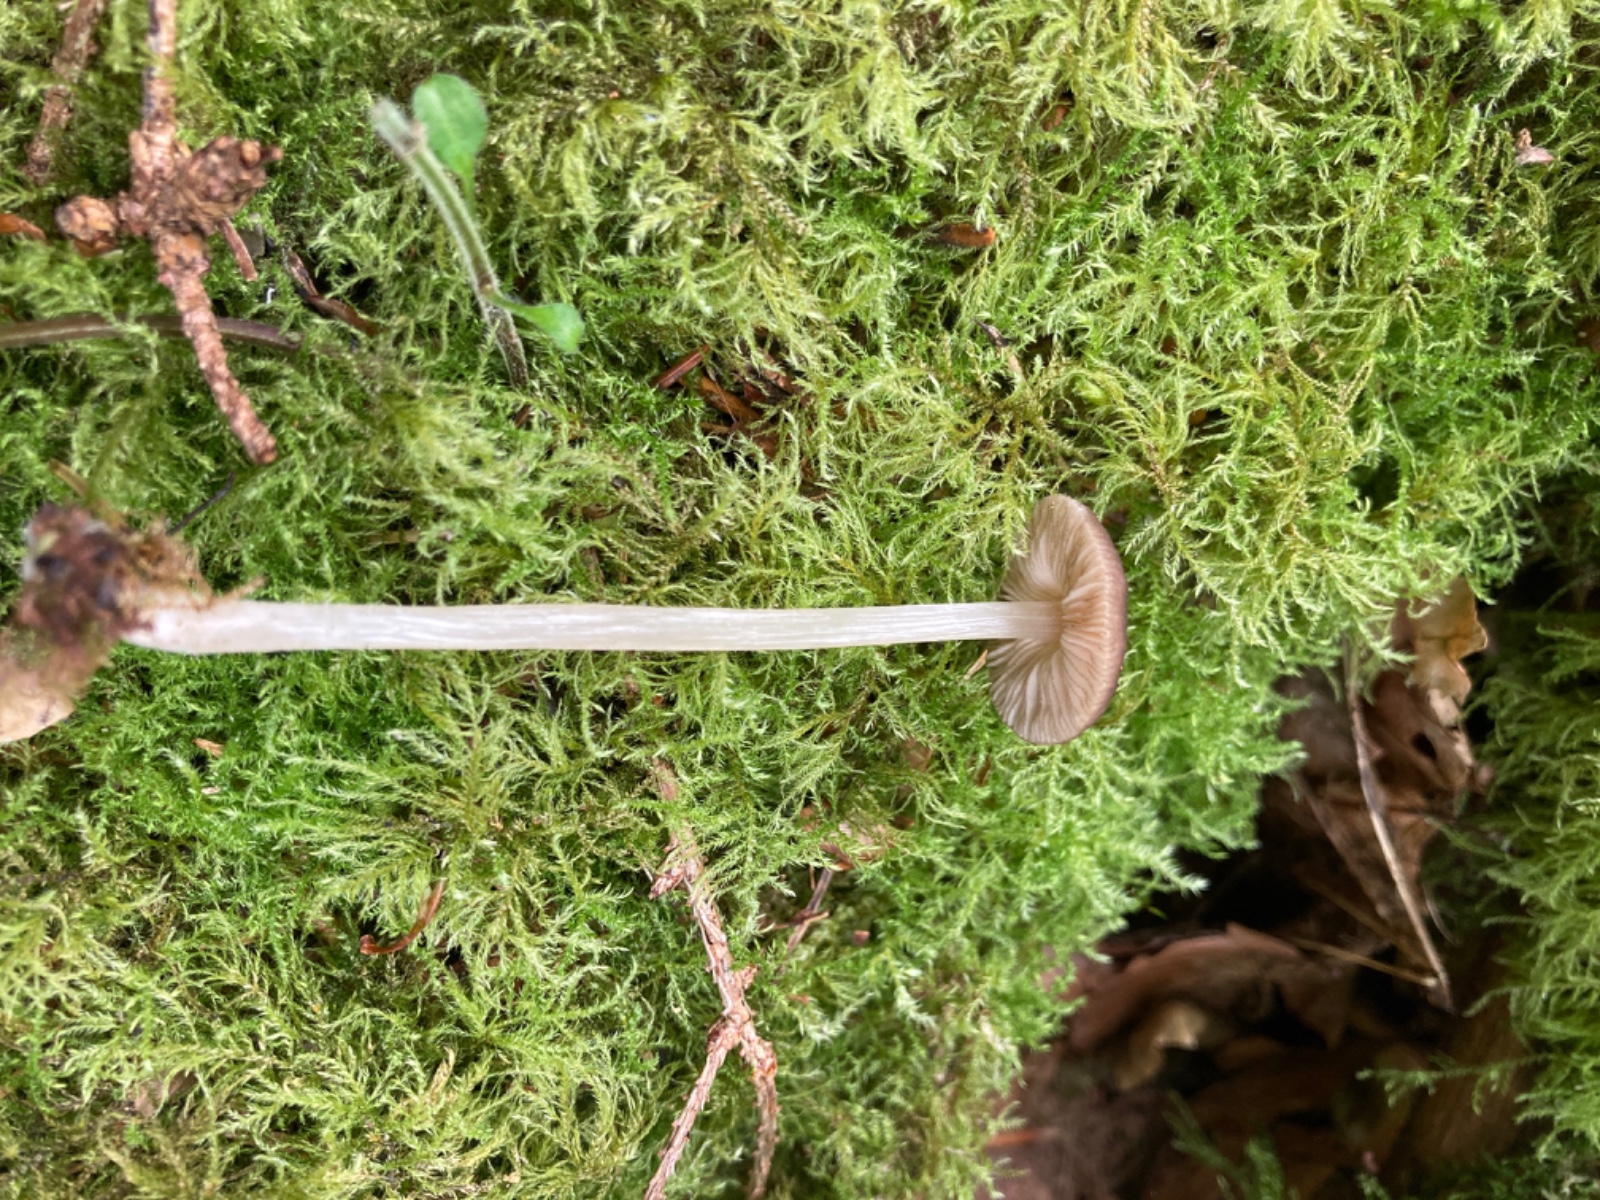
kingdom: Fungi
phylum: Basidiomycota
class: Agaricomycetes
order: Agaricales
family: Pluteaceae
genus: Pluteus
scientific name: Pluteus phlebophorus
